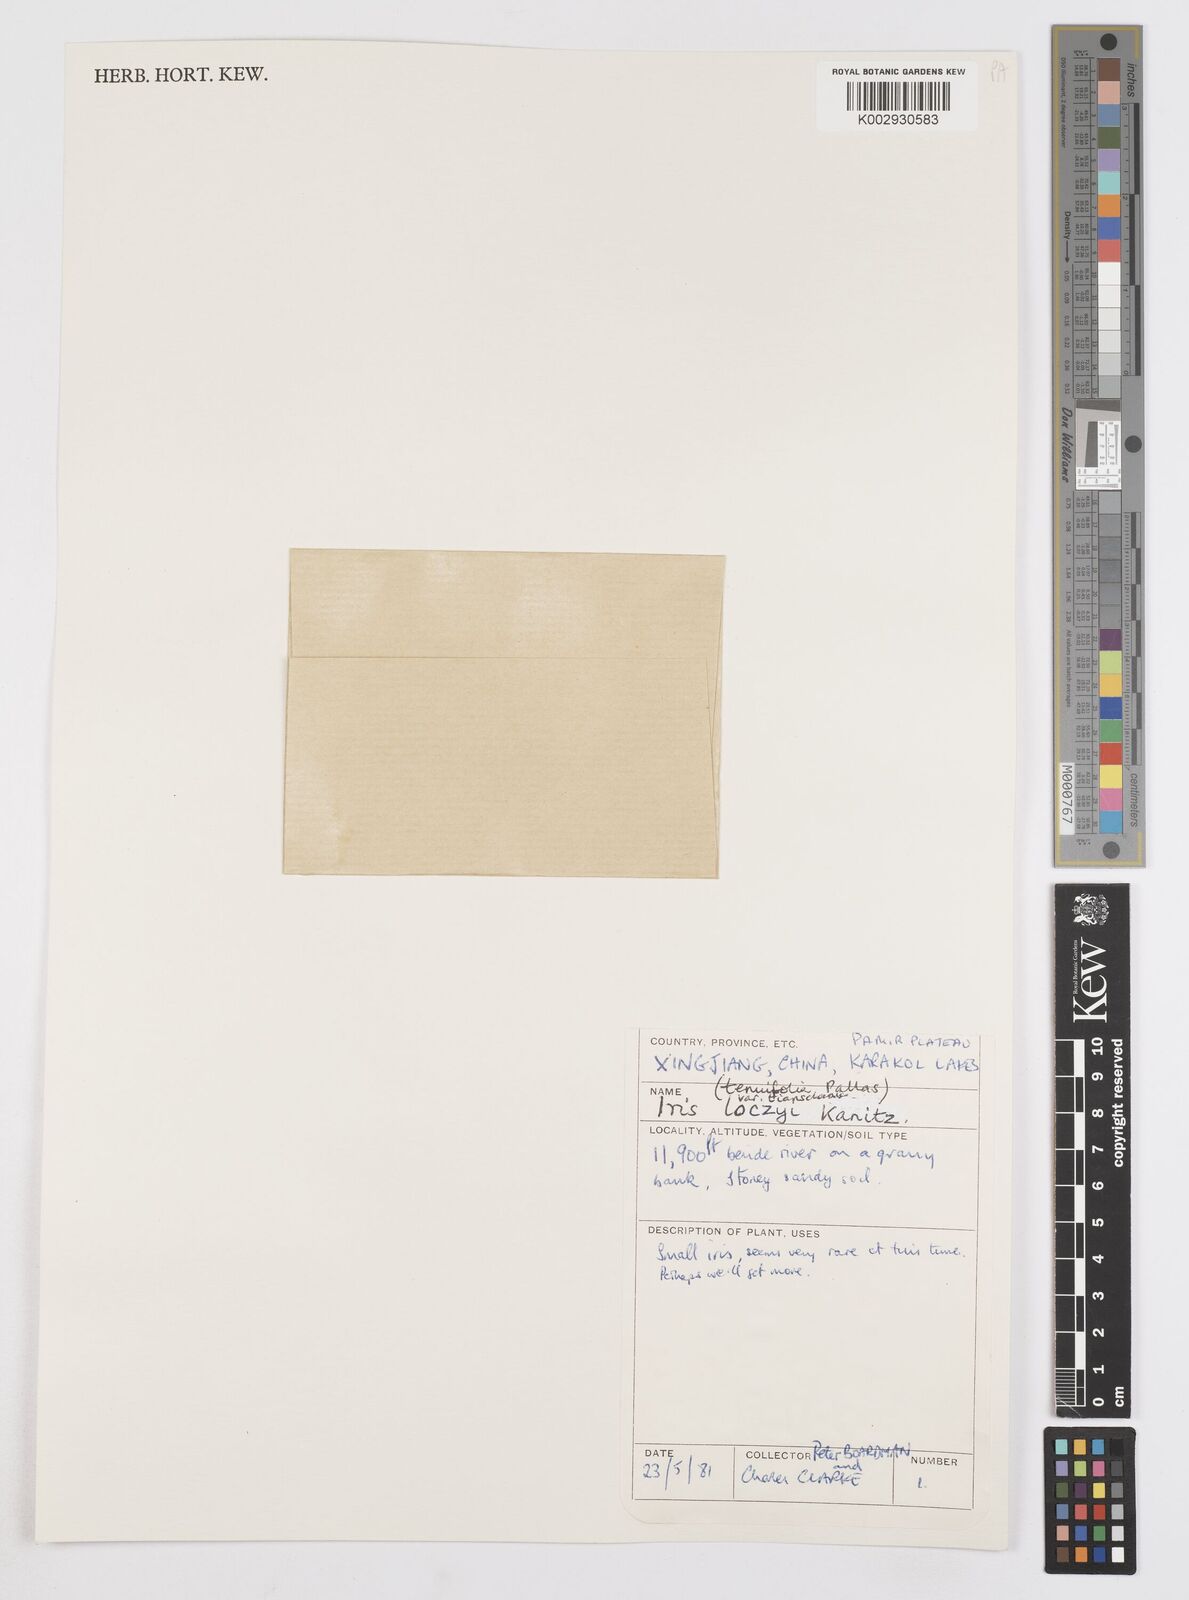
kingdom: Plantae
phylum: Tracheophyta
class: Liliopsida
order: Asparagales
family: Iridaceae
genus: Iris
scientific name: Iris loczyi
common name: Tian shan mountain iris
